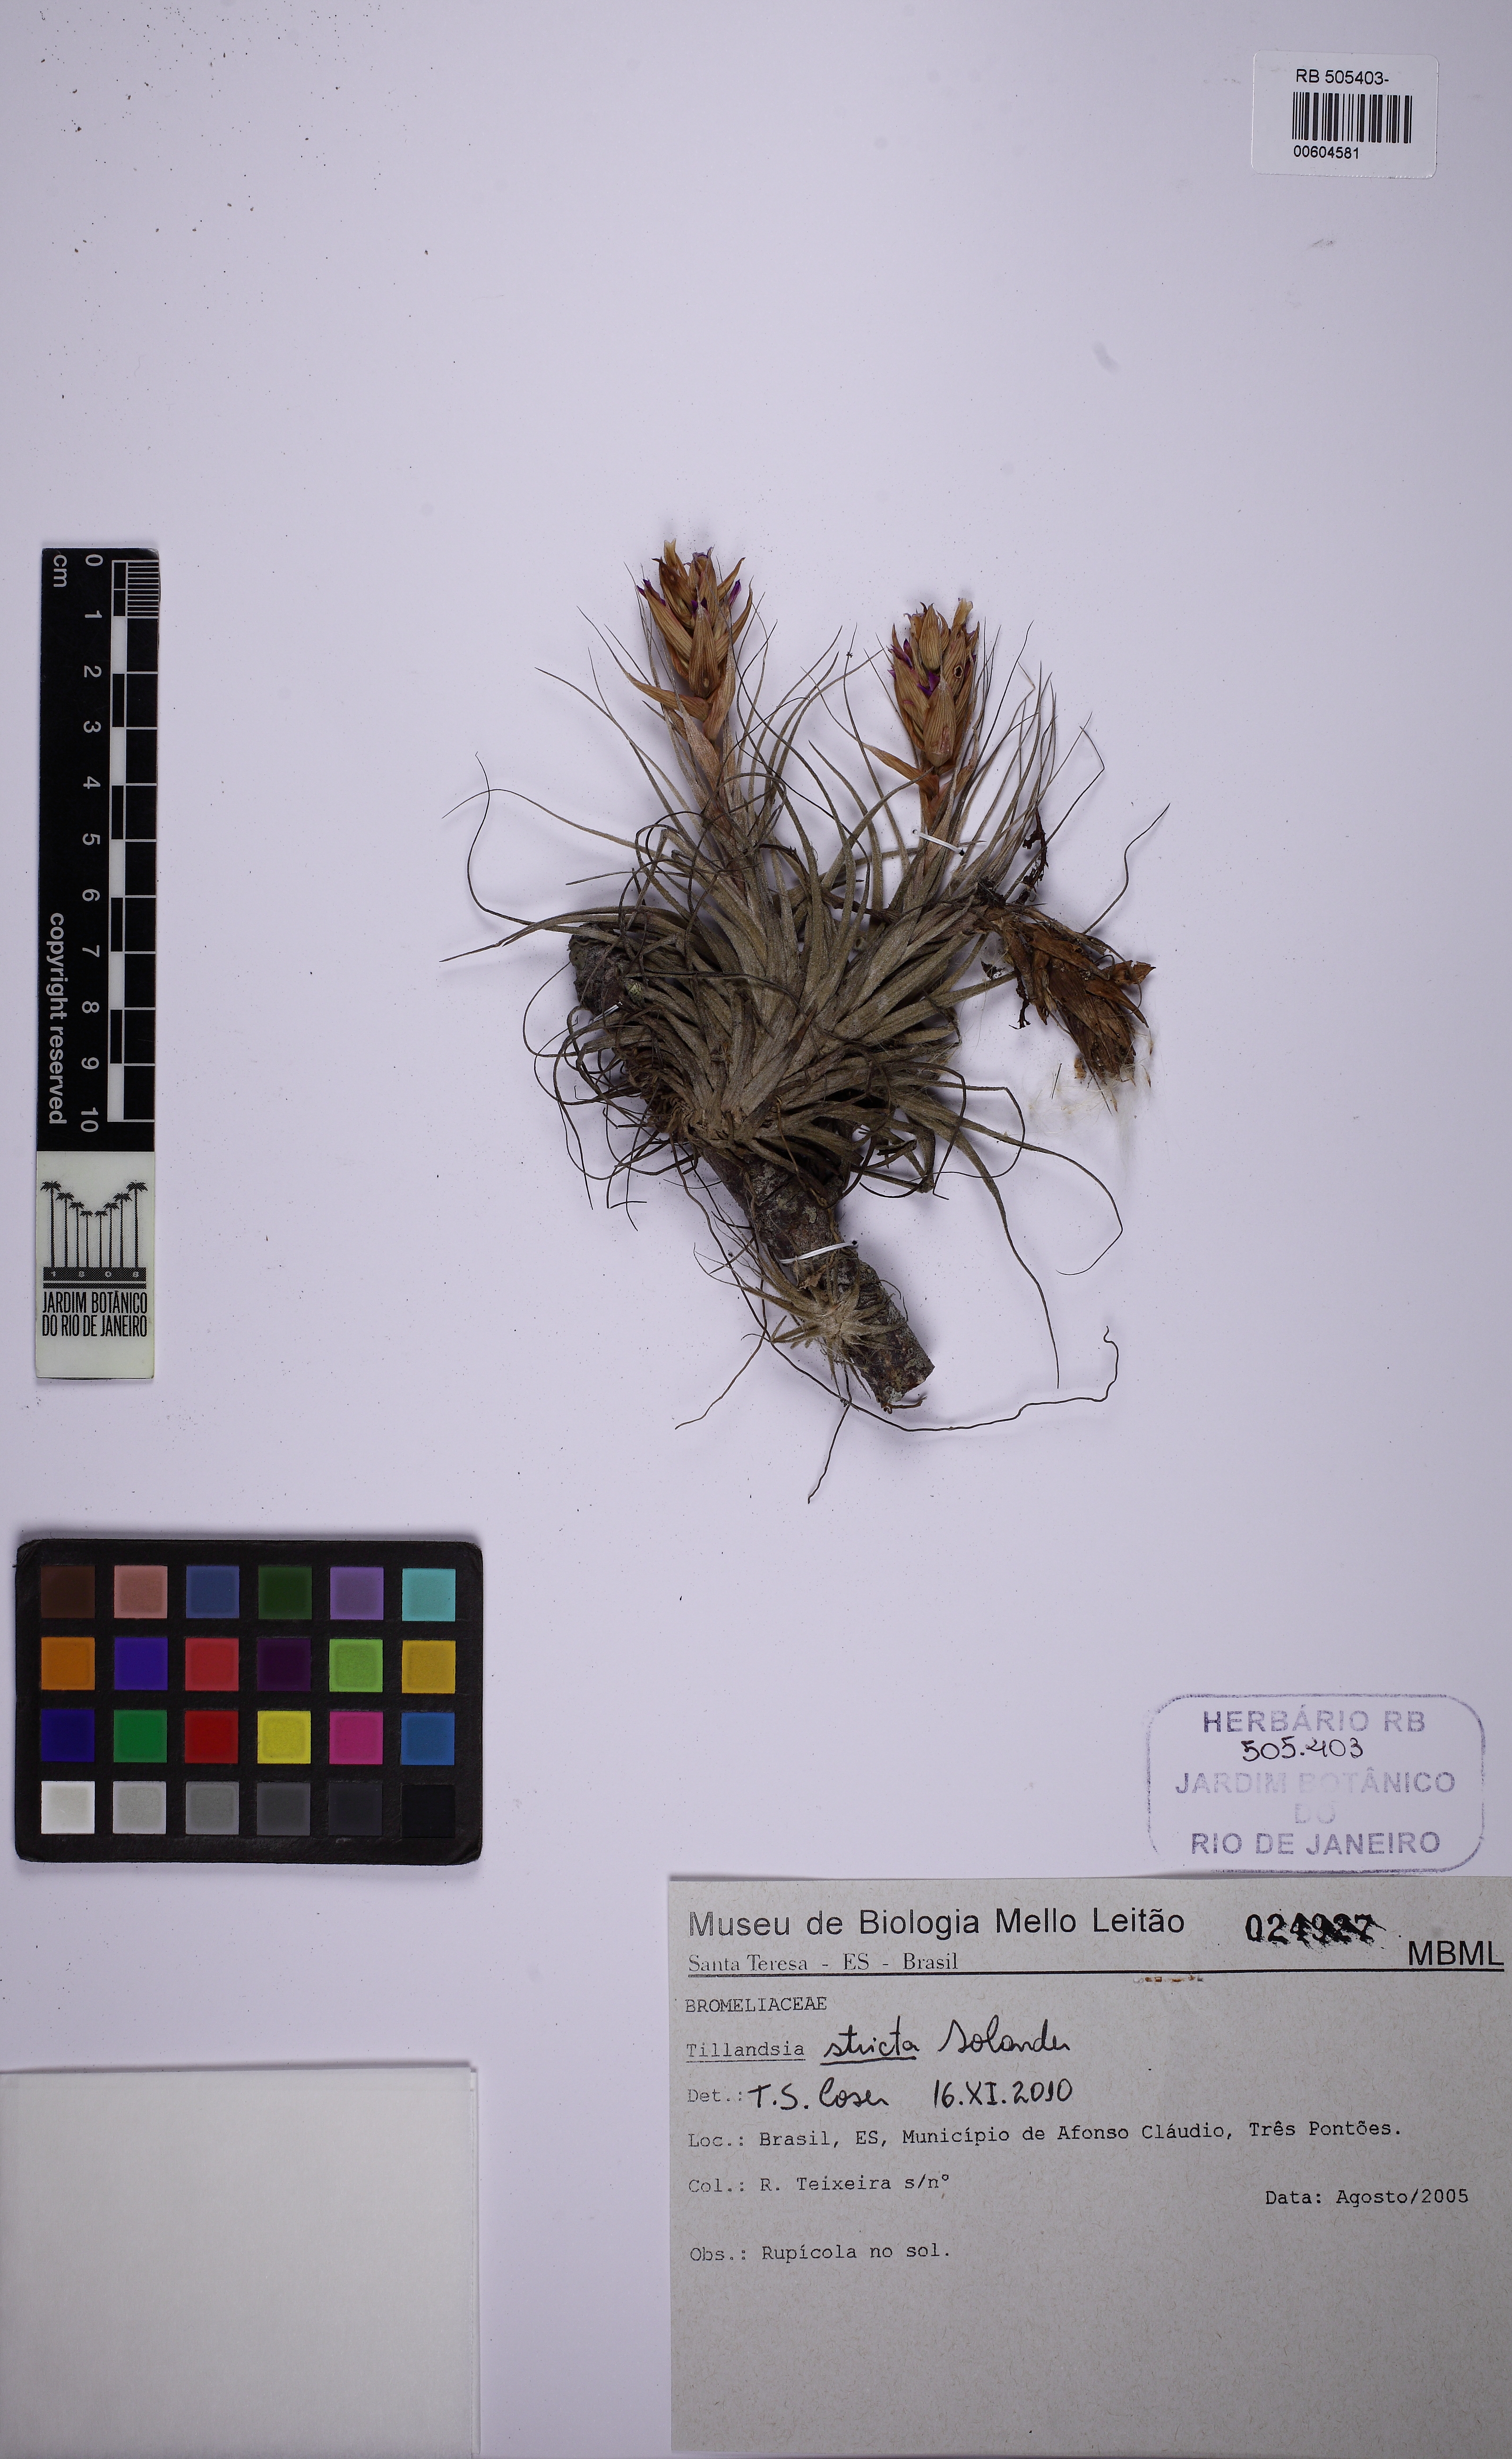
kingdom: Plantae
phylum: Tracheophyta
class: Liliopsida
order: Poales
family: Bromeliaceae
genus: Tillandsia
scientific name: Tillandsia stricta
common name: Airplant
